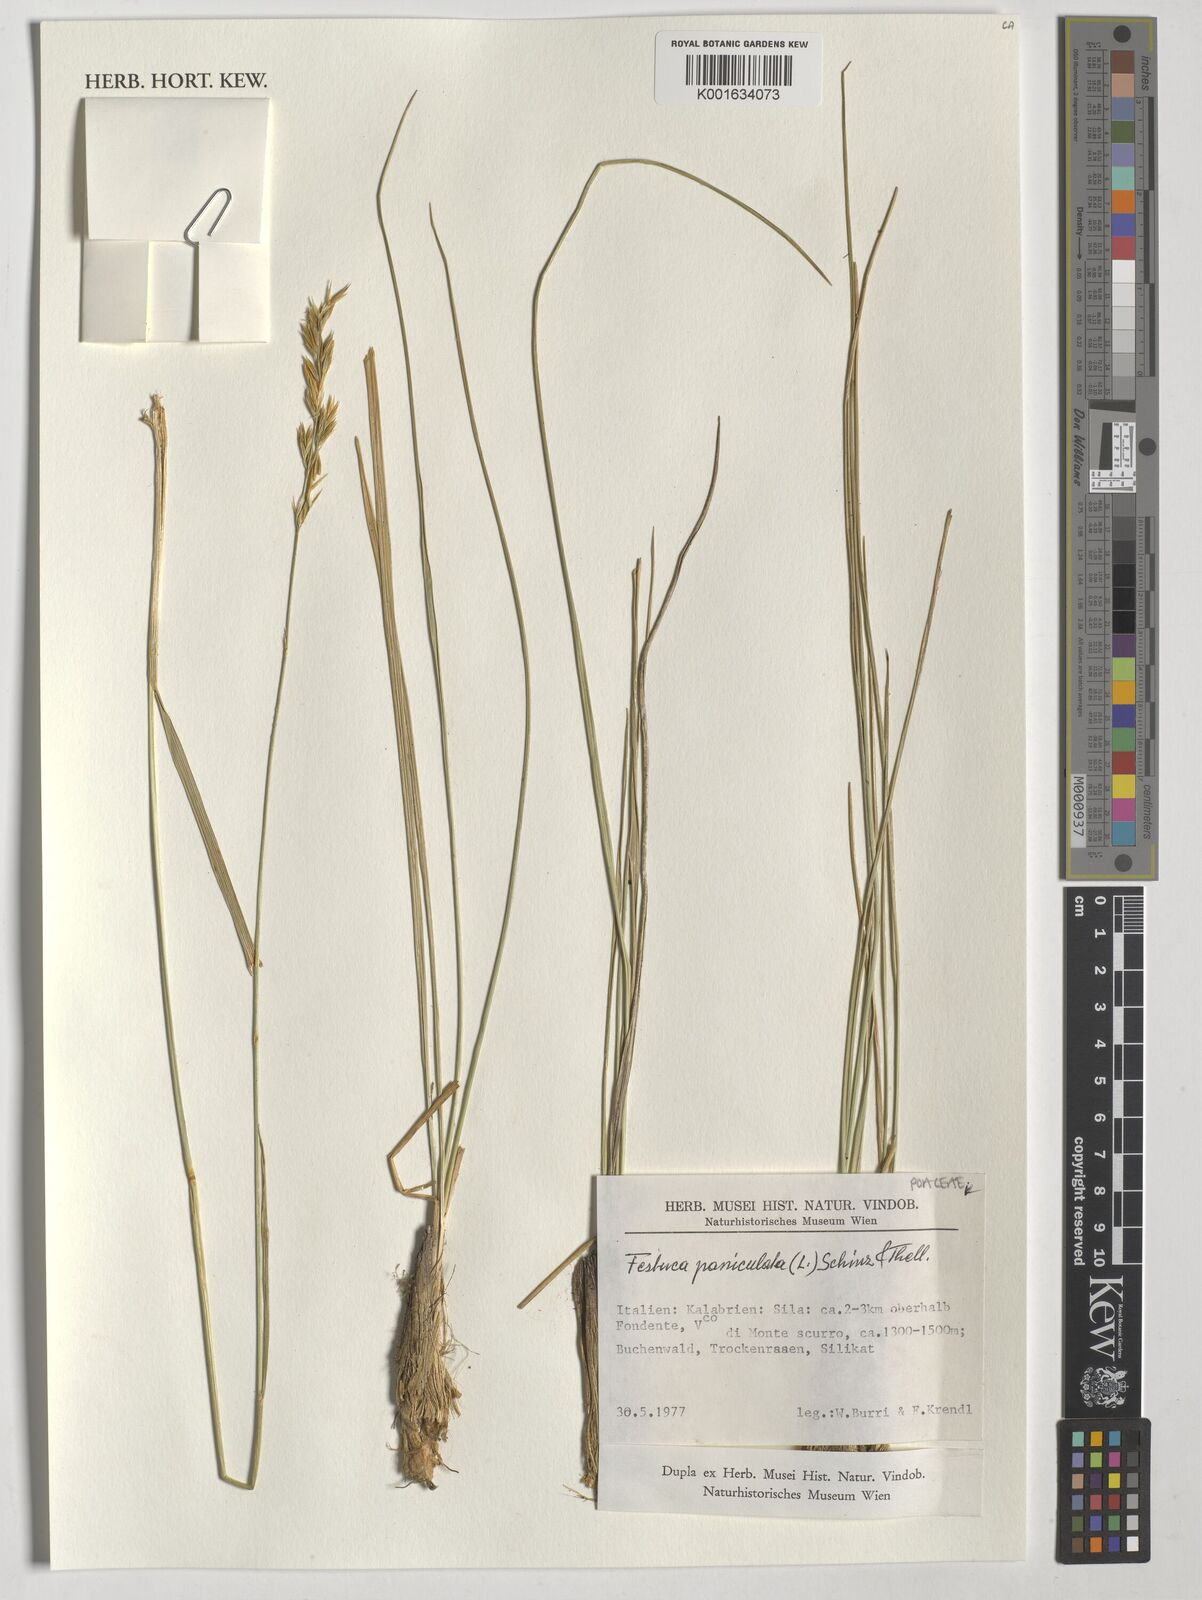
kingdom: Plantae
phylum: Tracheophyta
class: Liliopsida
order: Poales
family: Poaceae
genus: Patzkea
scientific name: Patzkea paniculata
